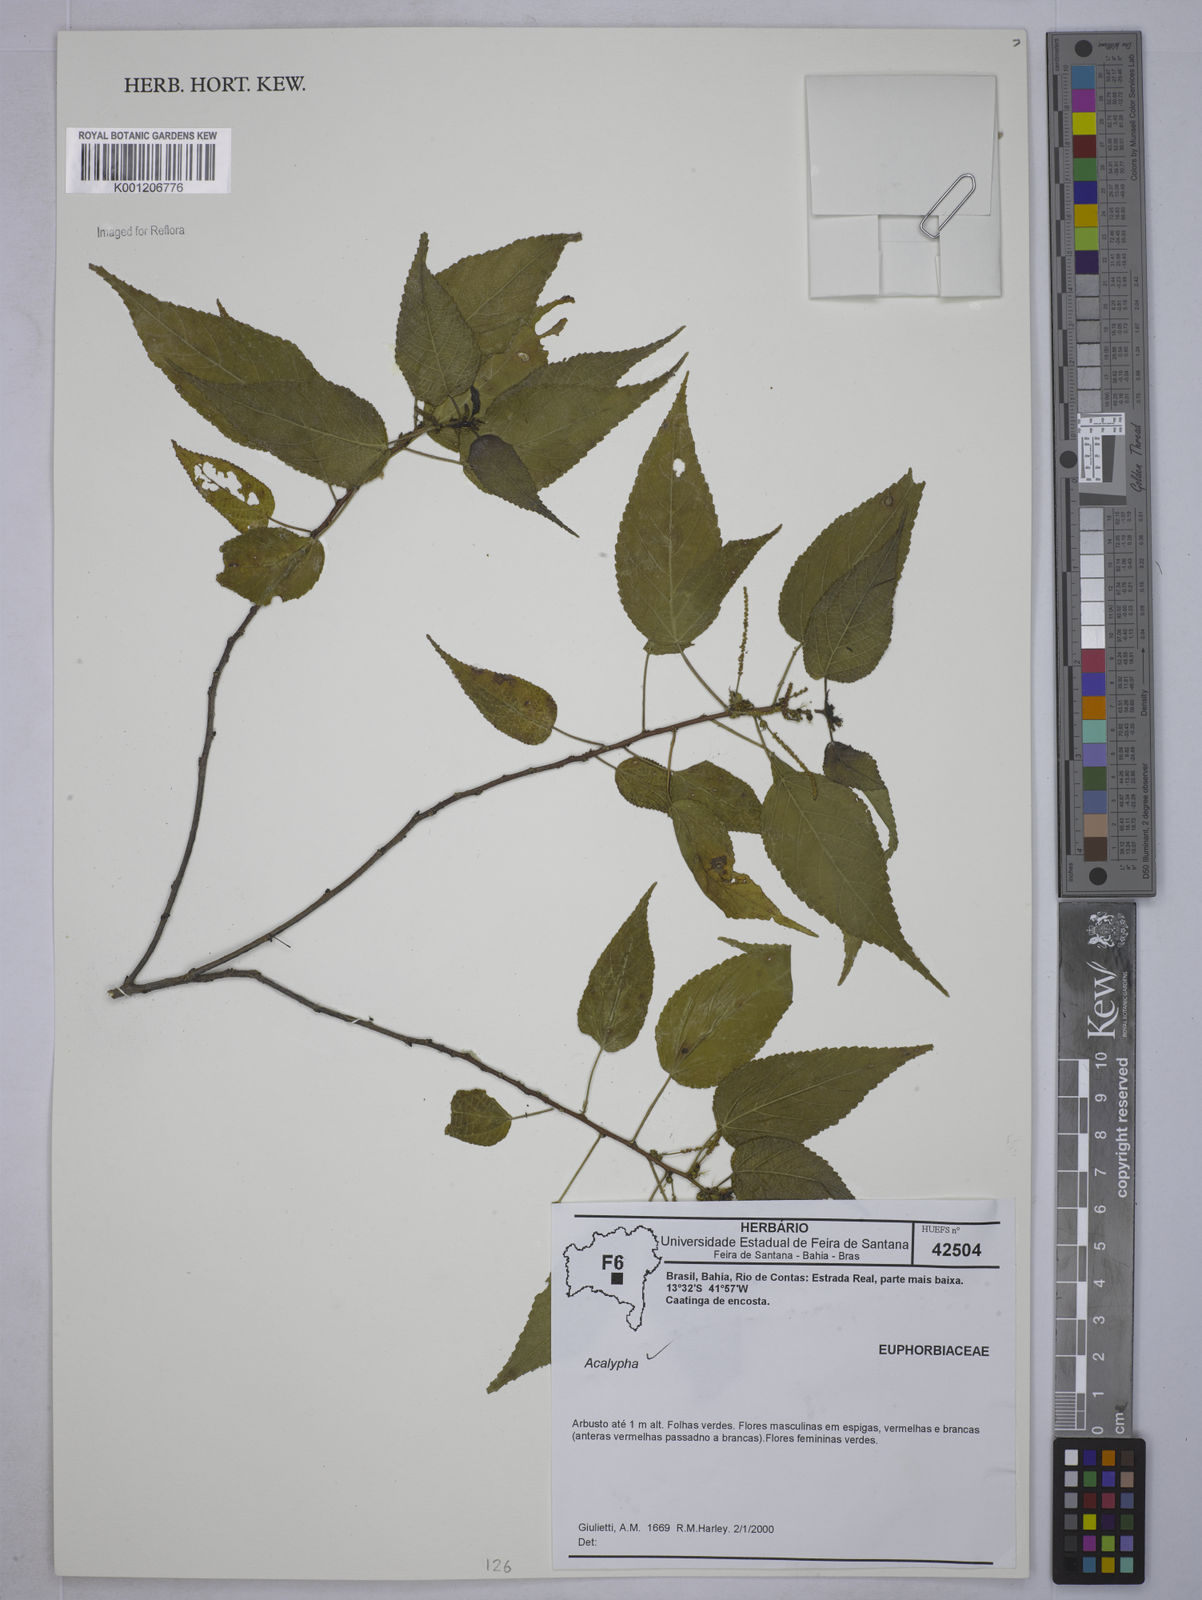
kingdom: Plantae
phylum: Tracheophyta
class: Magnoliopsida
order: Malpighiales
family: Euphorbiaceae
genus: Acalypha
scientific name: Acalypha
